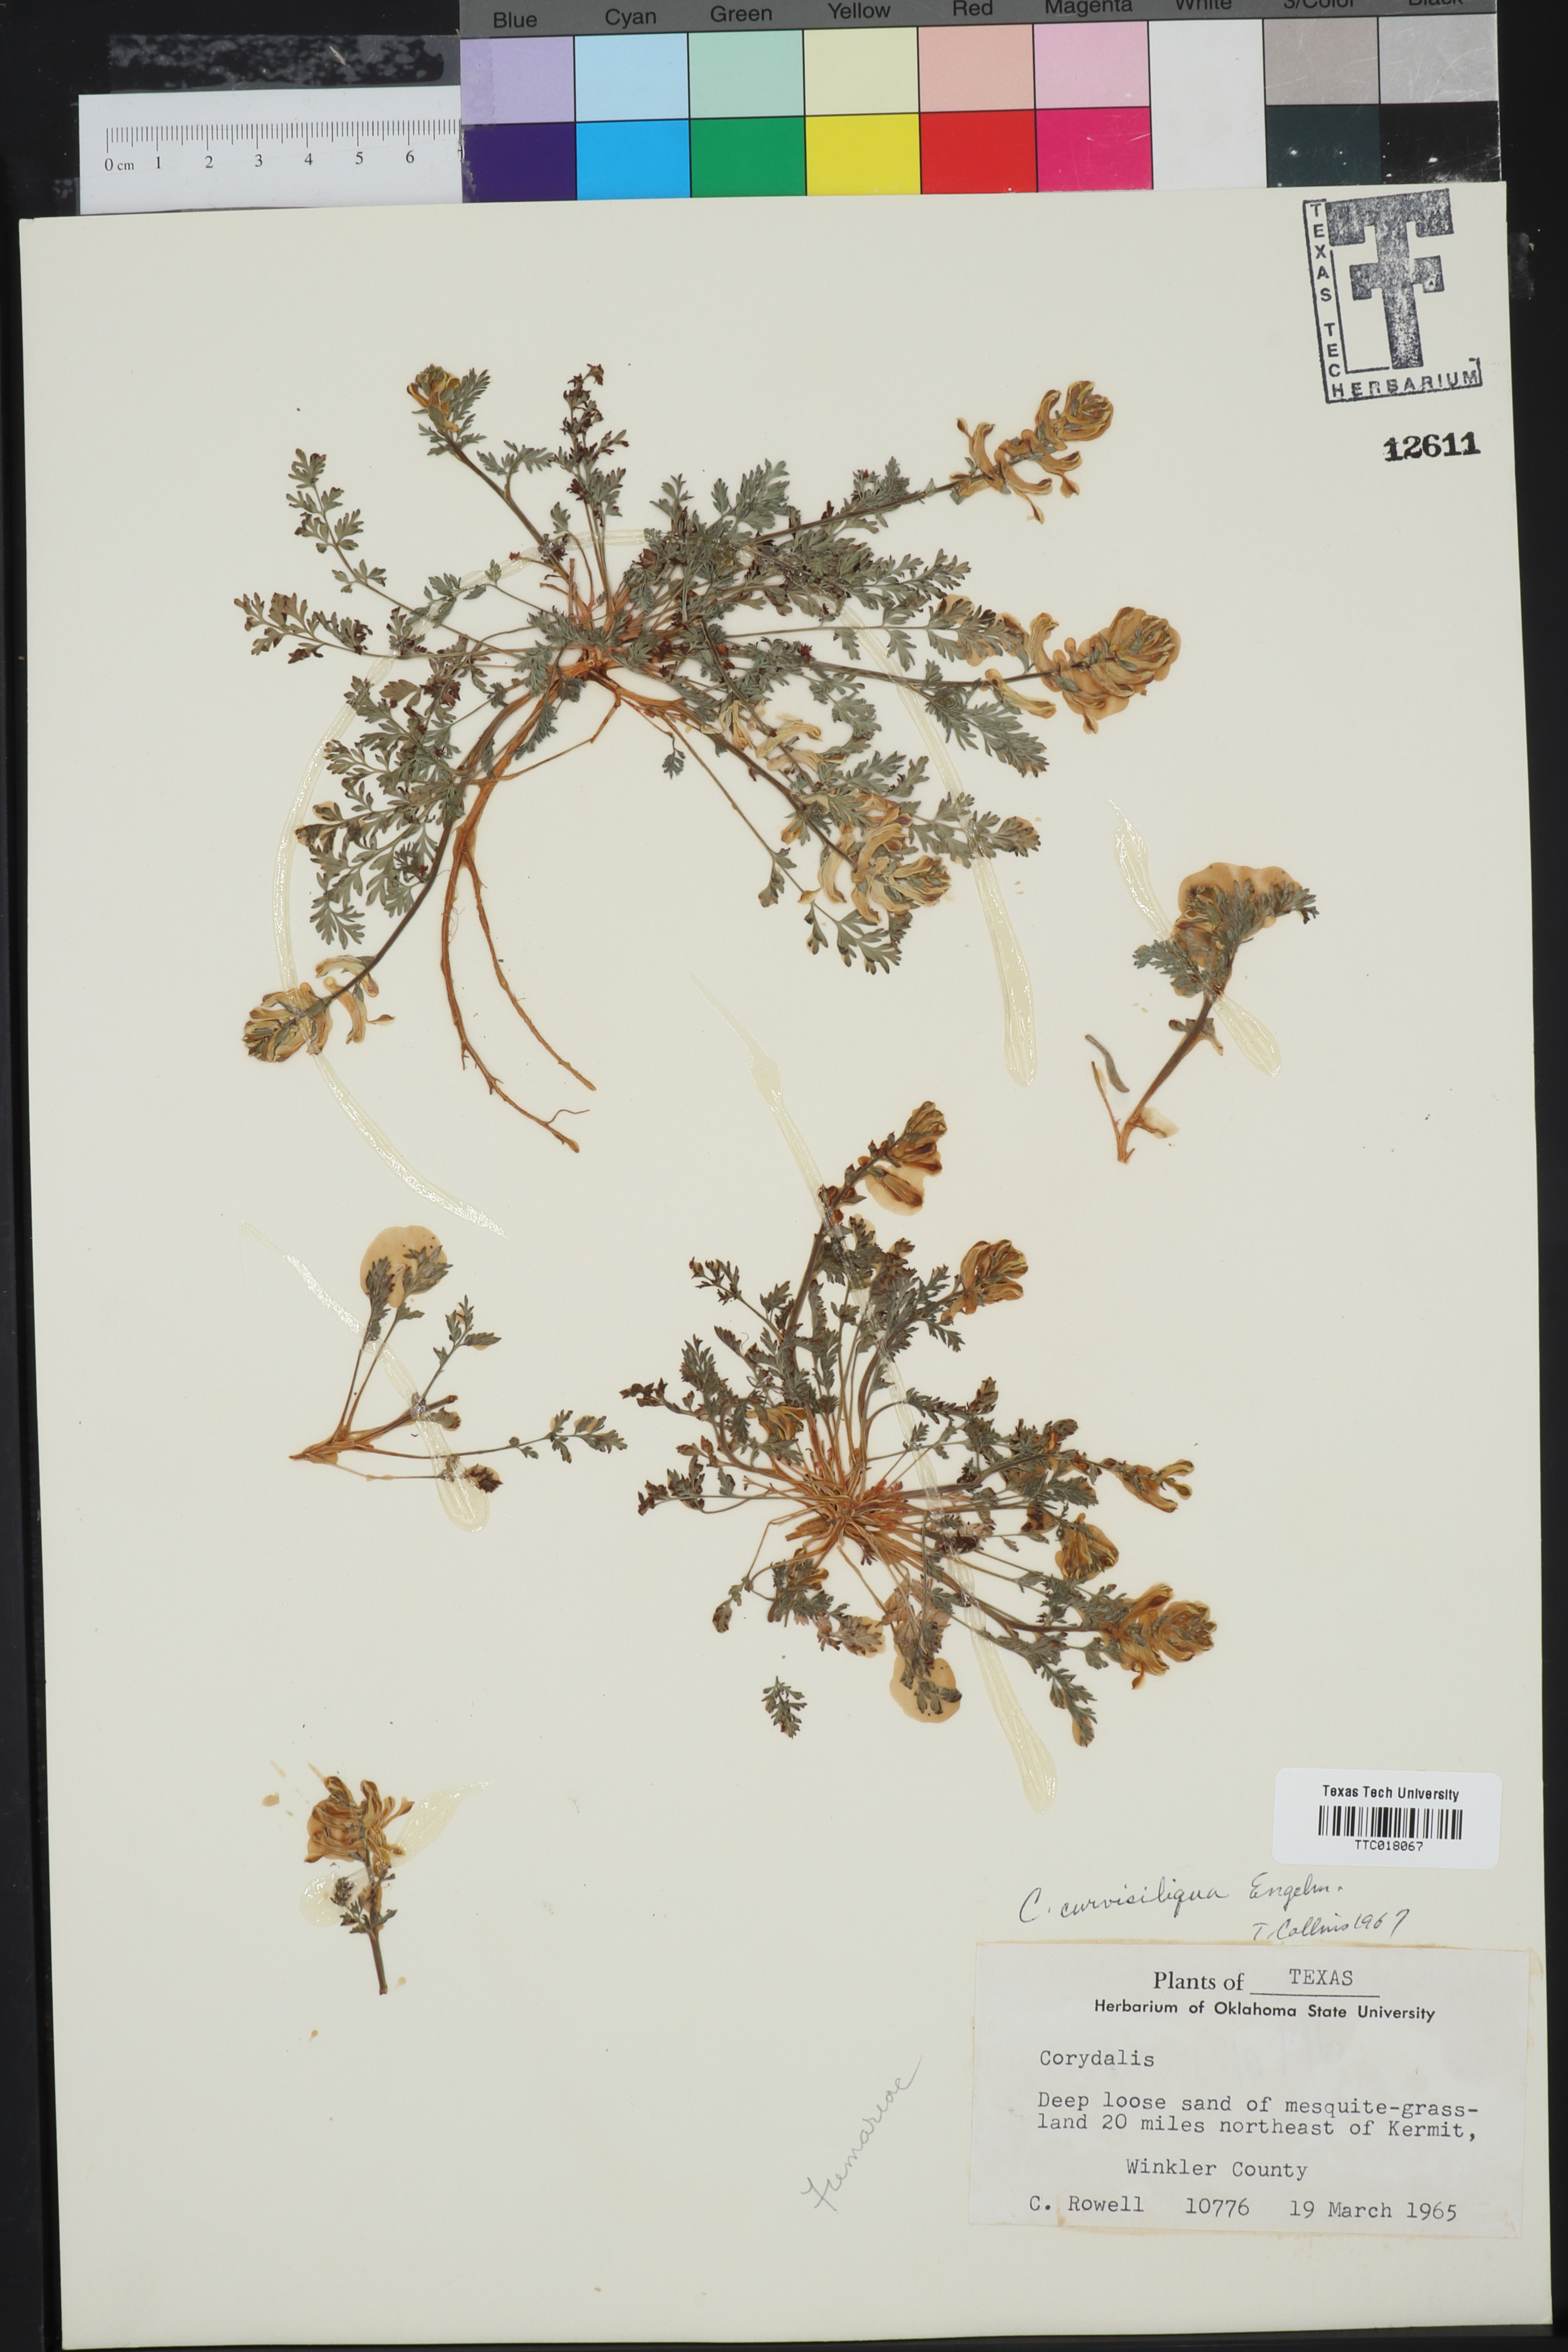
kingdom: Plantae
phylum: Tracheophyta
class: Magnoliopsida
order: Ranunculales
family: Papaveraceae
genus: Corydalis
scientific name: Corydalis curvisiliqua
